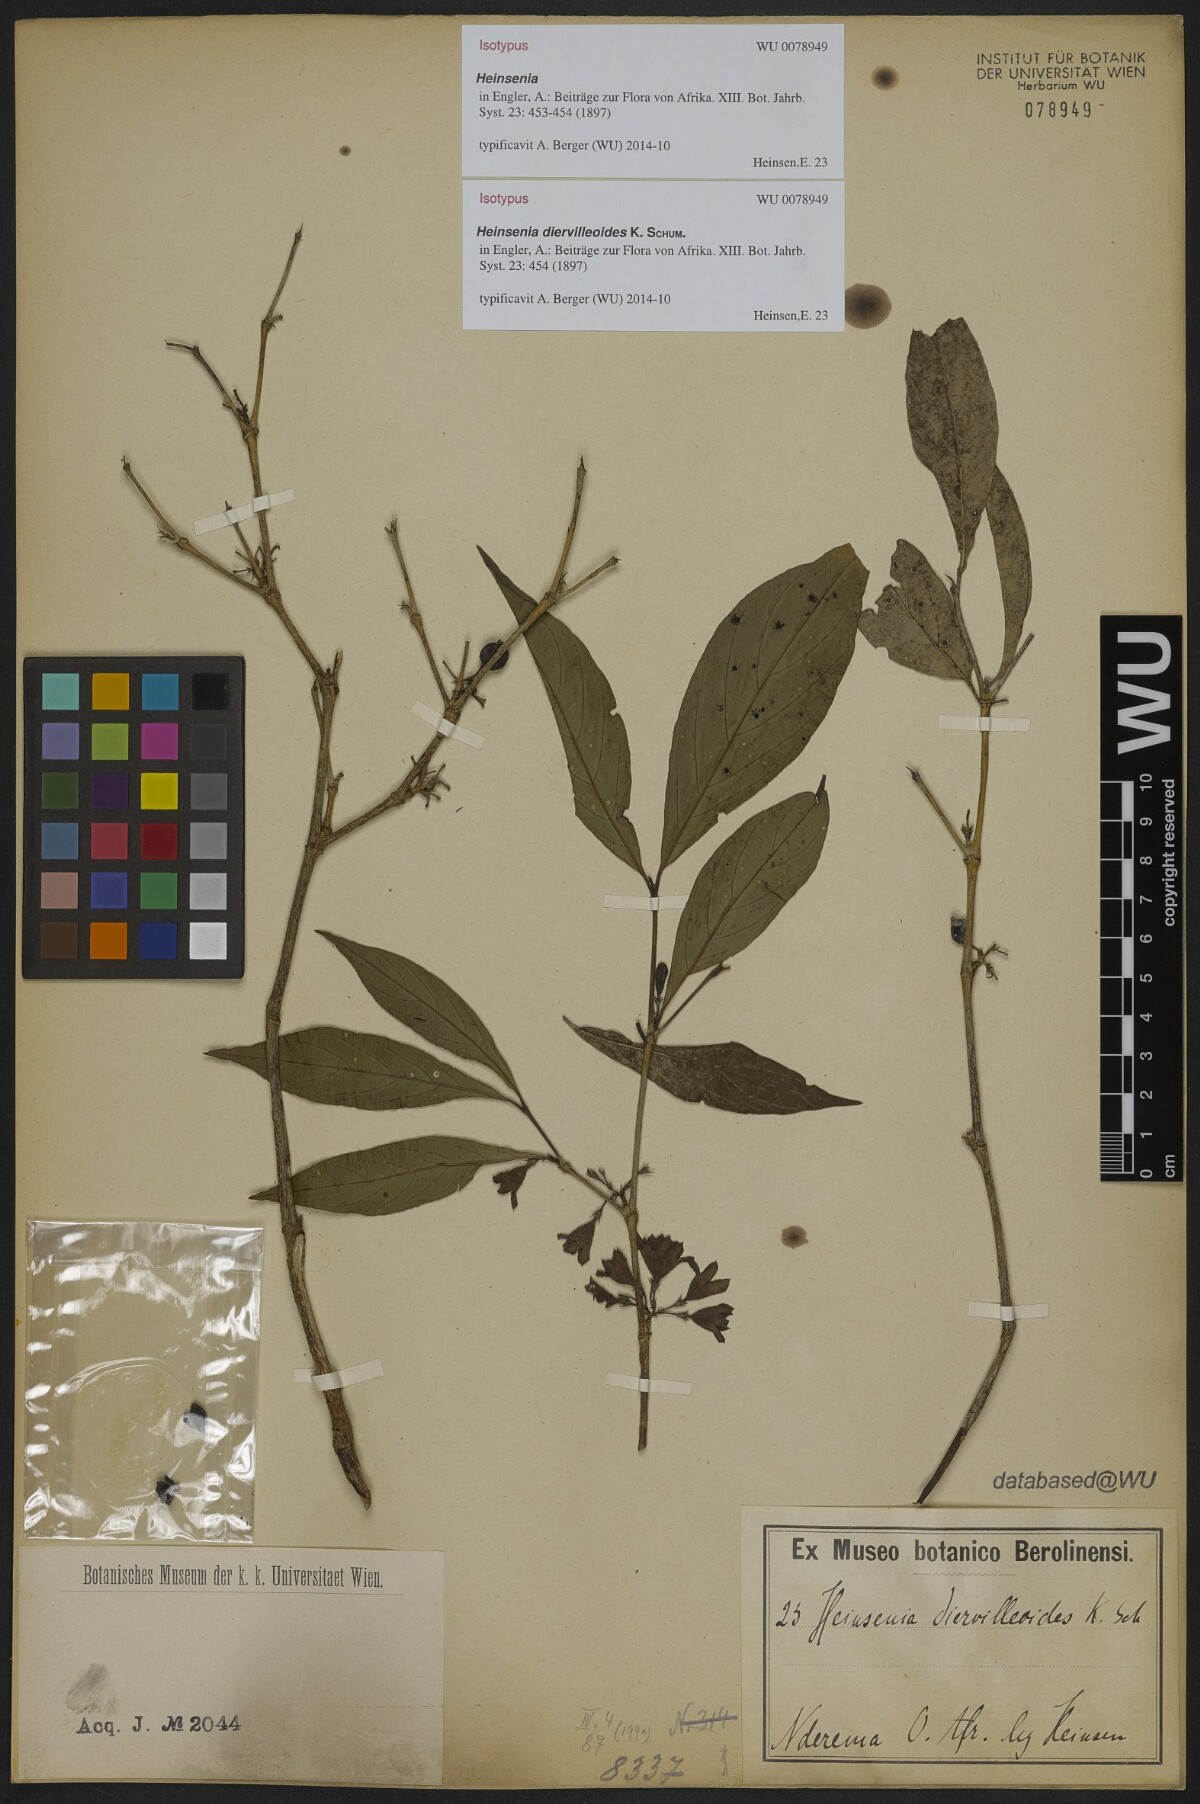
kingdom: Plantae
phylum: Tracheophyta
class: Magnoliopsida
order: Gentianales
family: Rubiaceae
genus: Heinsenia
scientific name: Heinsenia diervilleoides
